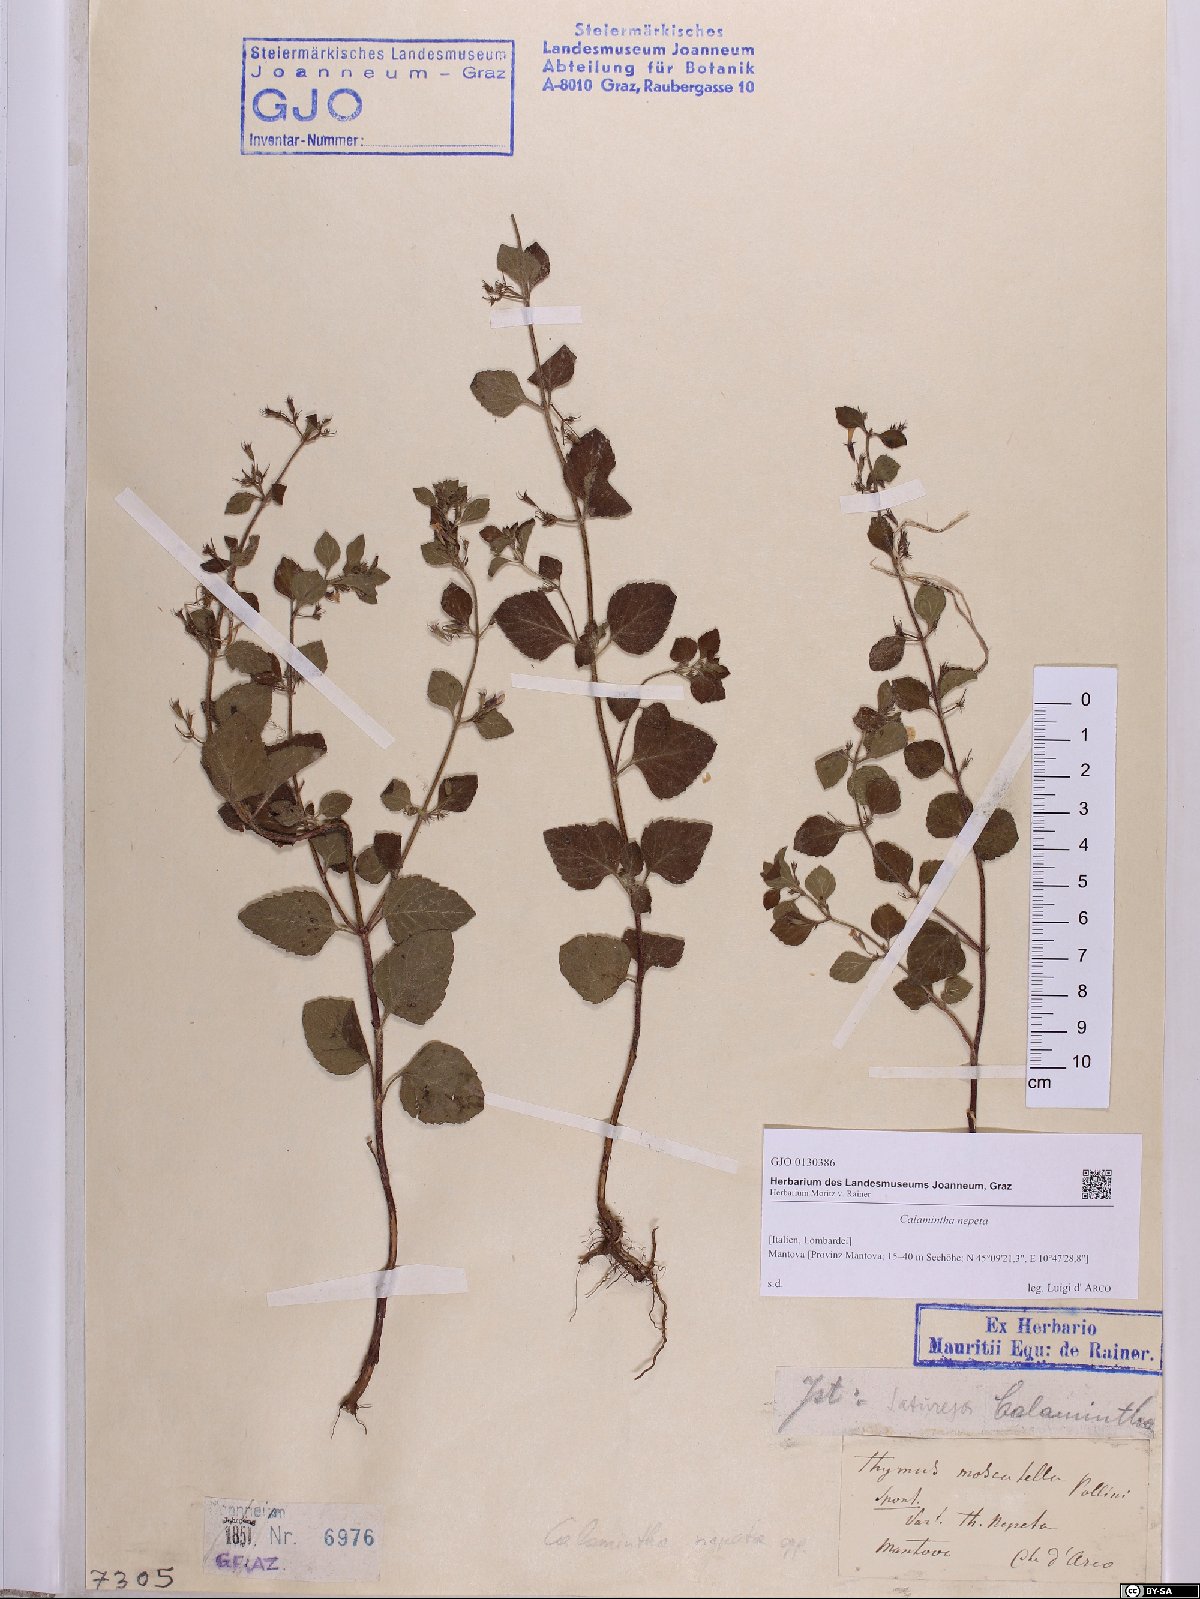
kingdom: Plantae
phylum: Tracheophyta
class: Magnoliopsida
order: Lamiales
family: Lamiaceae
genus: Clinopodium
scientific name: Clinopodium nepeta
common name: Lesser calamint
